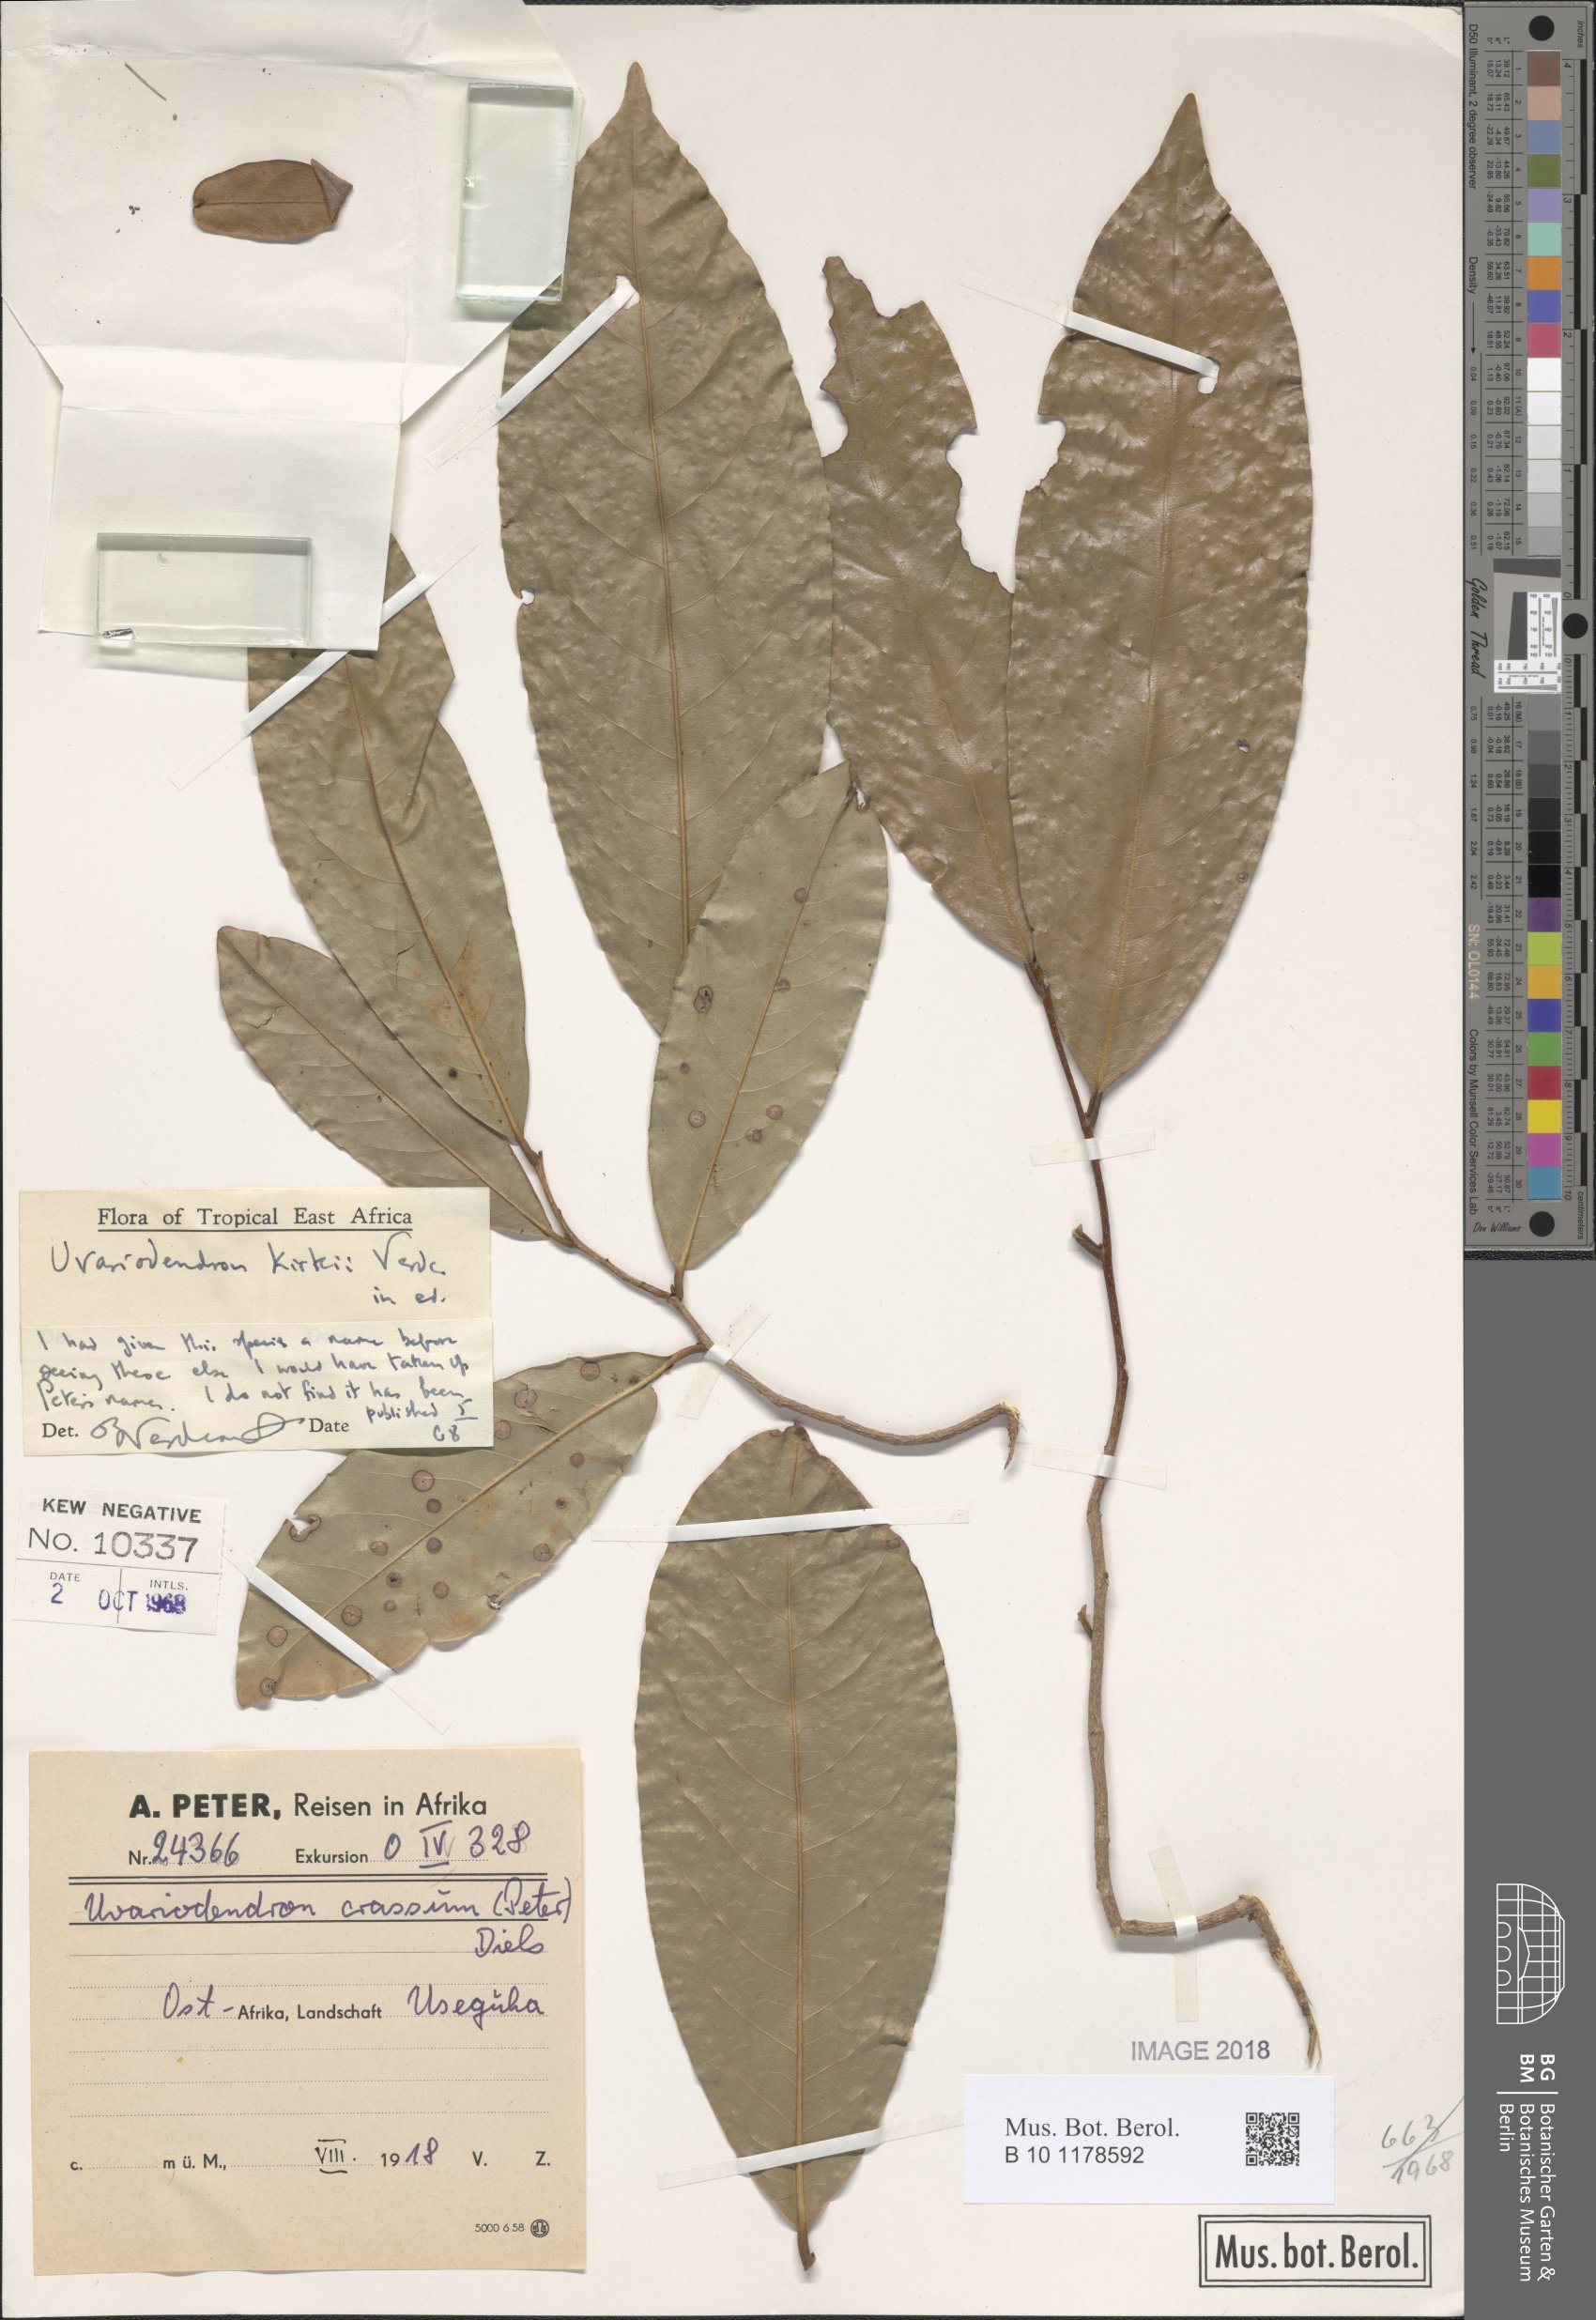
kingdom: Plantae
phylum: Tracheophyta
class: Magnoliopsida
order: Magnoliales
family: Annonaceae
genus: Uvariodendron
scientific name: Uvariodendron kirkii
